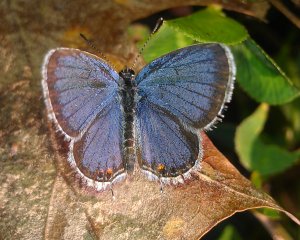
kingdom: Animalia
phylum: Arthropoda
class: Insecta
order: Lepidoptera
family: Lycaenidae
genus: Elkalyce
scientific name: Elkalyce comyntas
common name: Eastern Tailed-Blue
